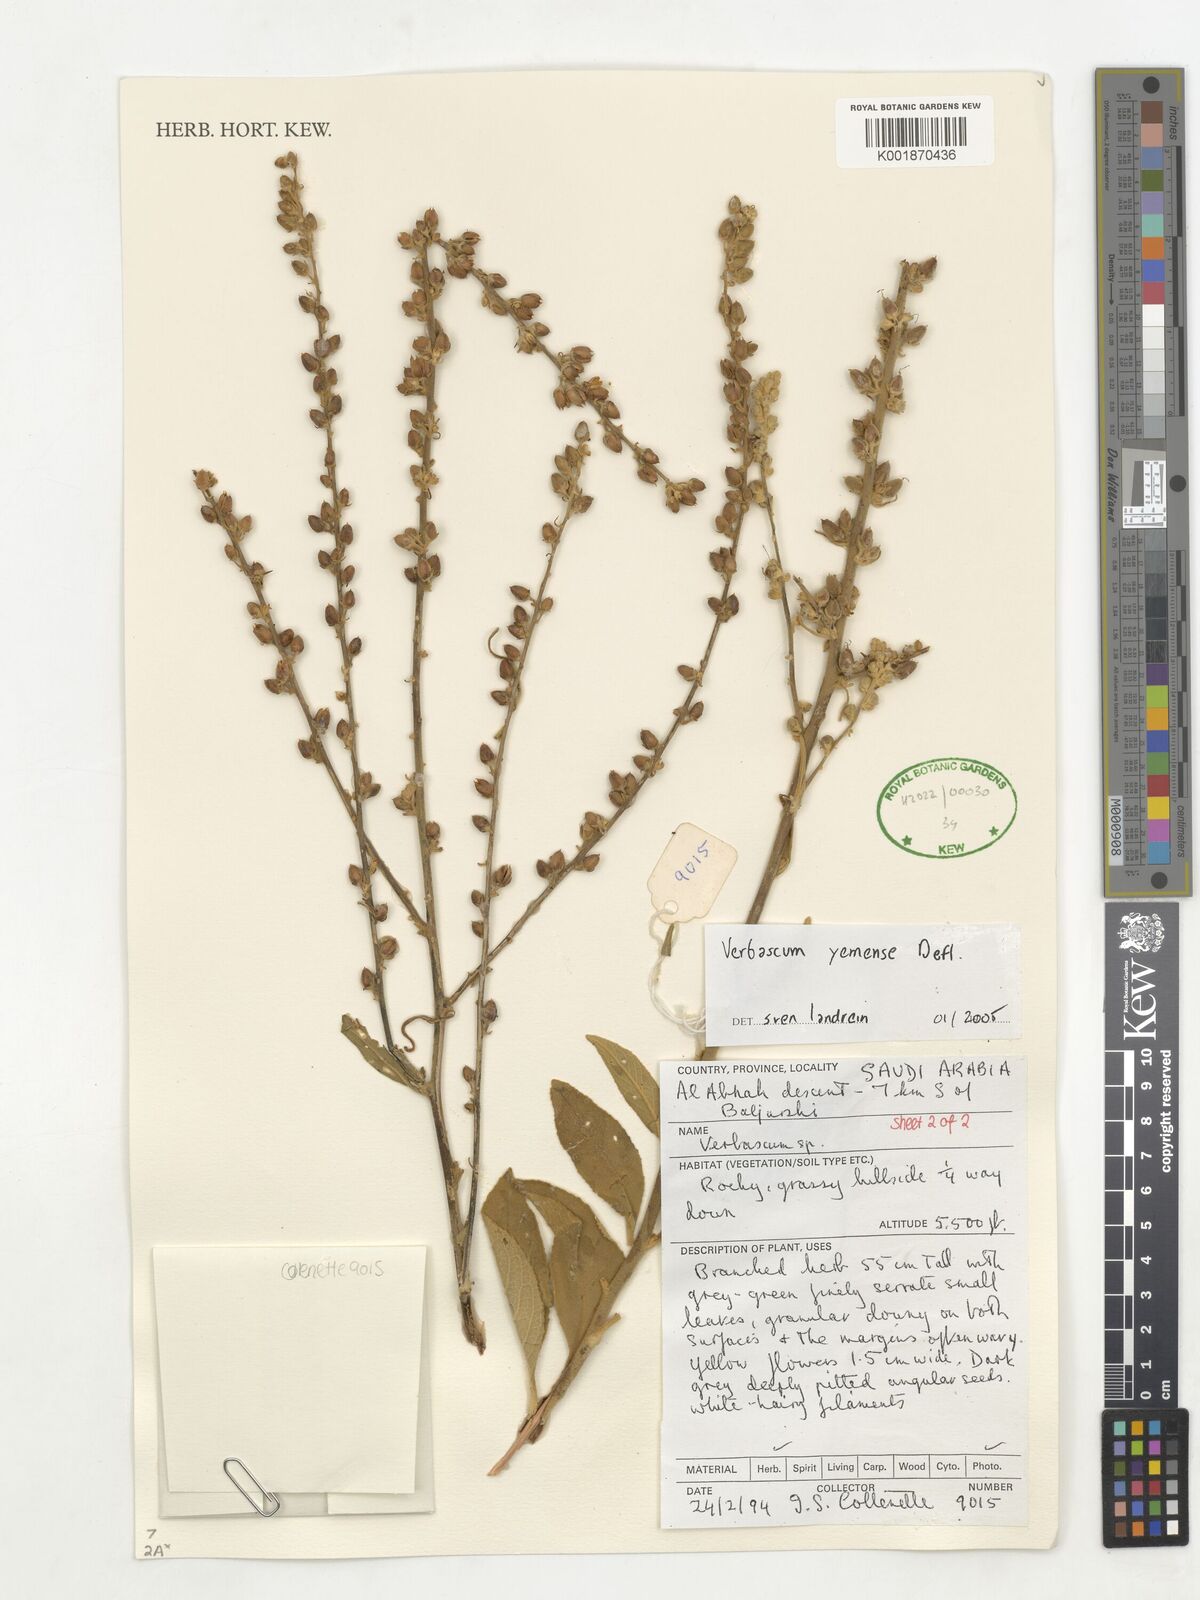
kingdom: Plantae
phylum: Tracheophyta
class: Magnoliopsida
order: Lamiales
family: Scrophulariaceae
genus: Verbascum
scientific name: Verbascum yemense
